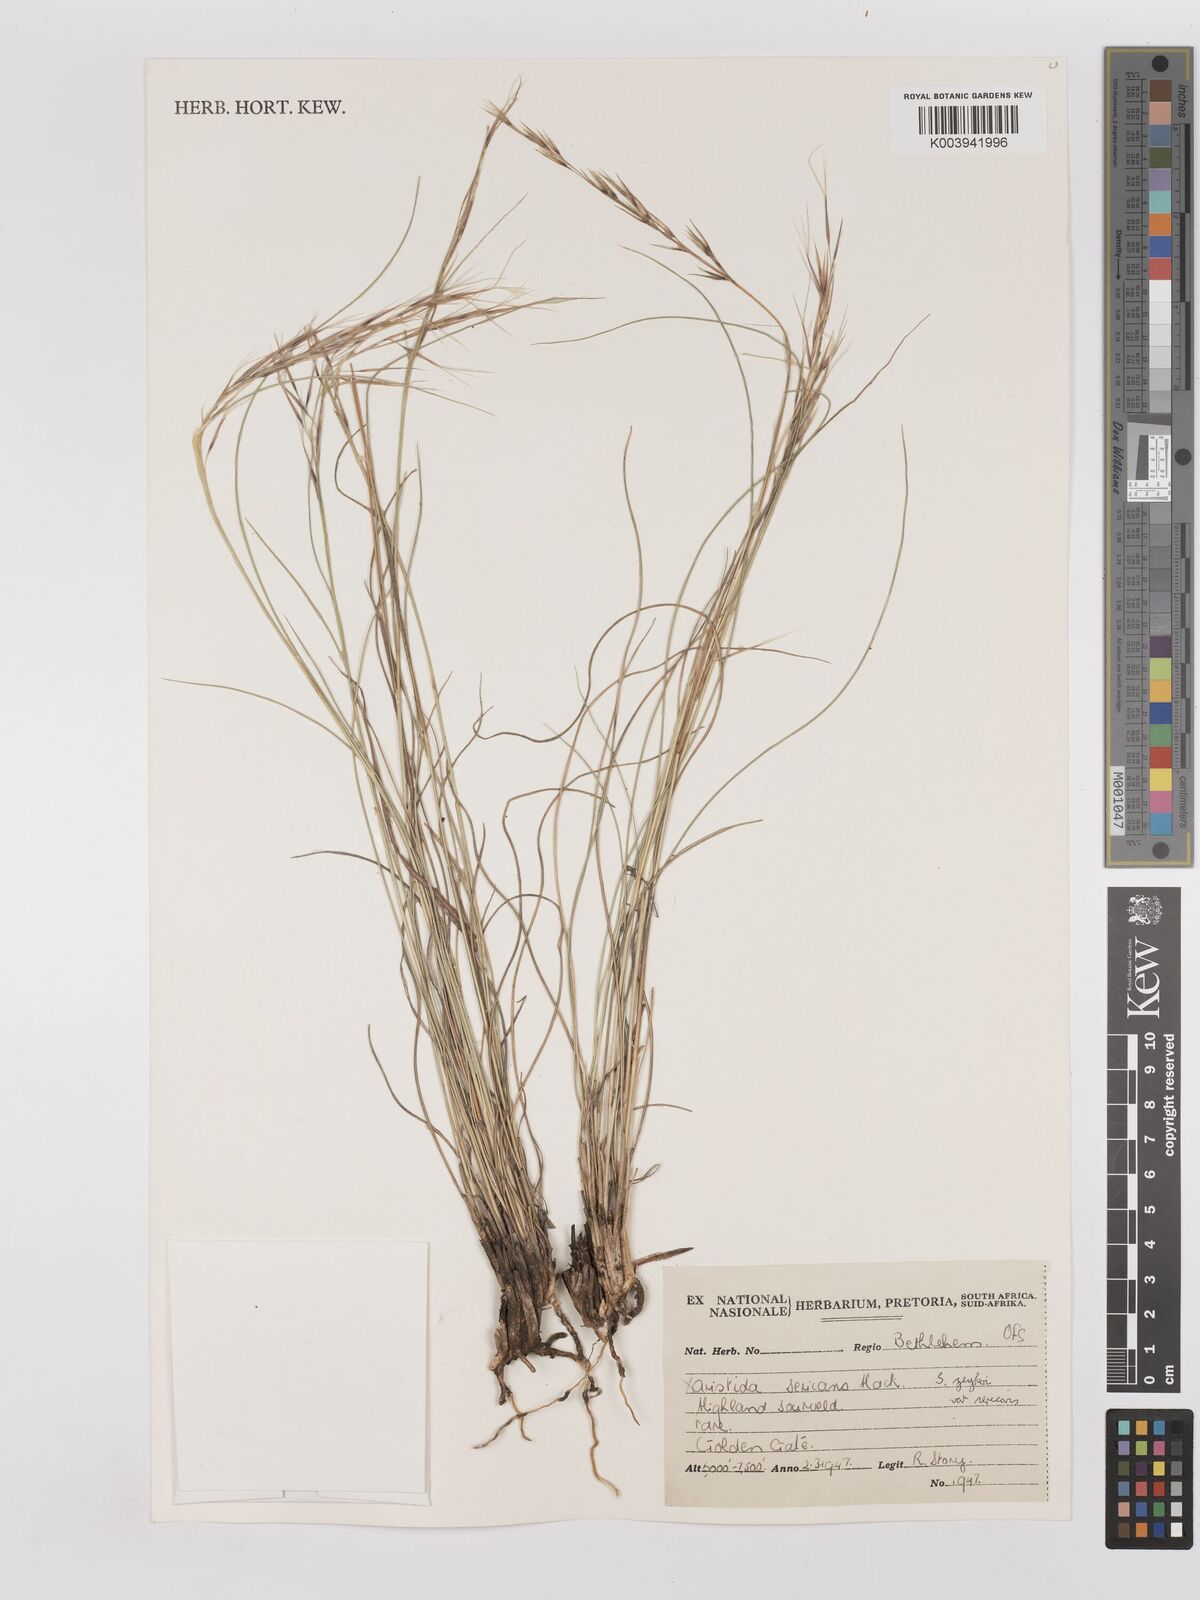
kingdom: Plantae
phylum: Tracheophyta
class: Liliopsida
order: Poales
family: Poaceae
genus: Stipagrostis
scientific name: Stipagrostis zeyheri
